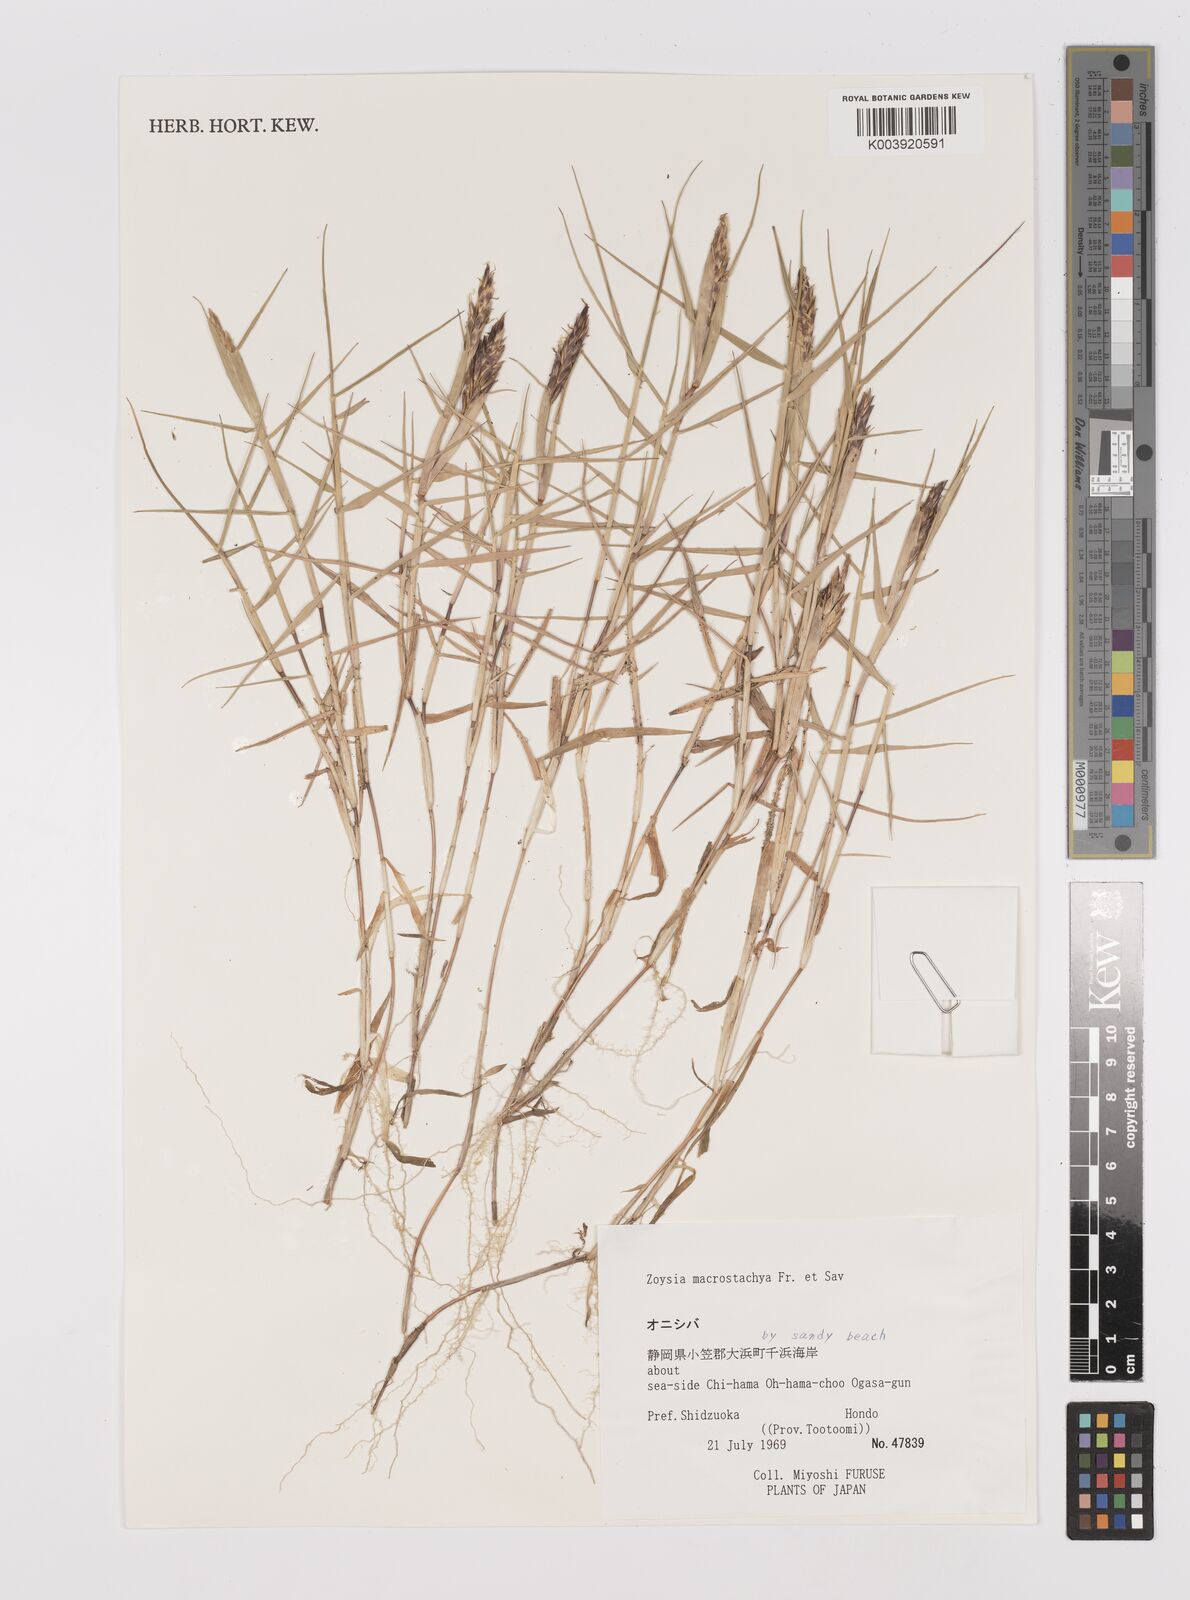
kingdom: Plantae
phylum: Tracheophyta
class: Liliopsida
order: Poales
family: Poaceae
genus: Zoysia
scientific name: Zoysia macrostachya
